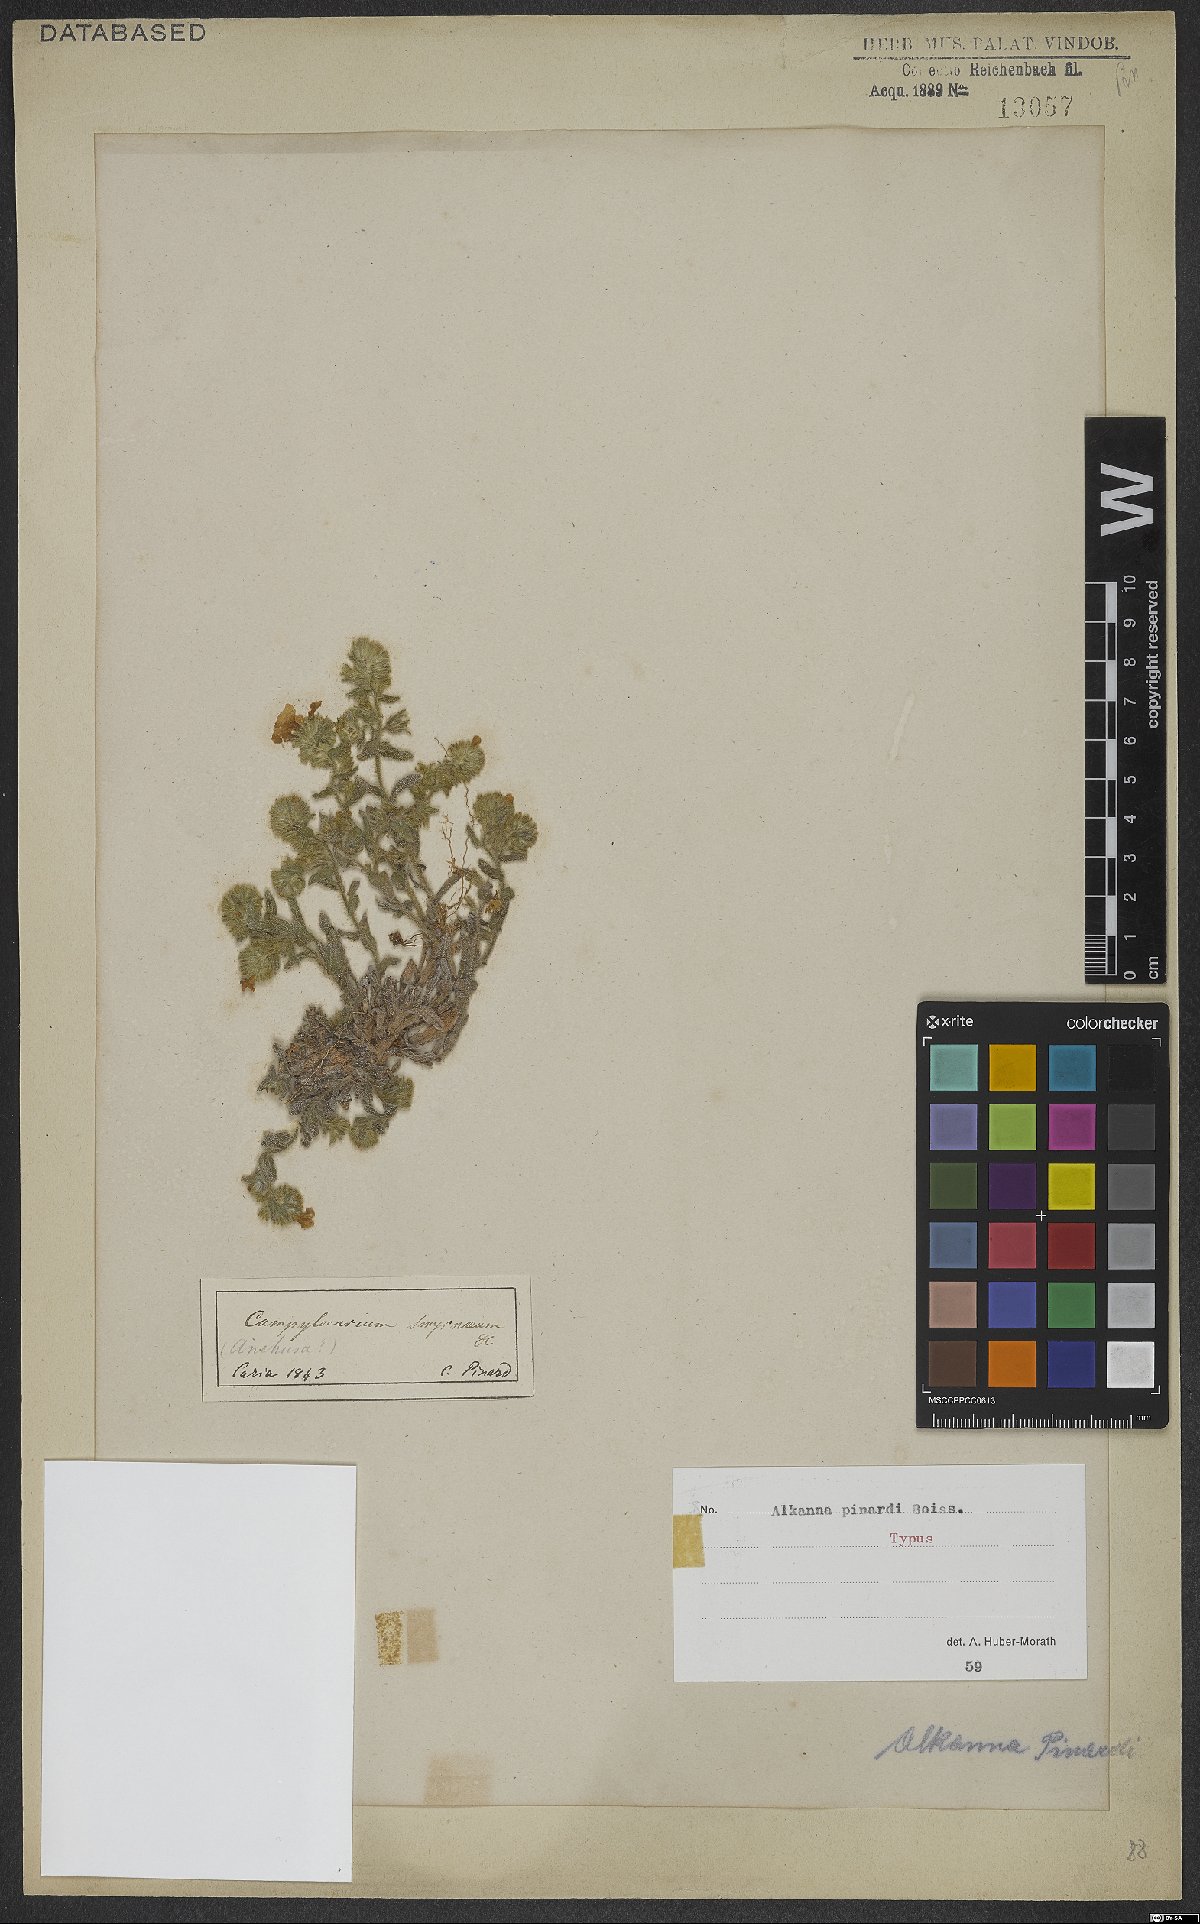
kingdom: Plantae
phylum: Tracheophyta
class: Magnoliopsida
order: Boraginales
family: Boraginaceae
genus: Alkanna
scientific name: Alkanna pinardii
